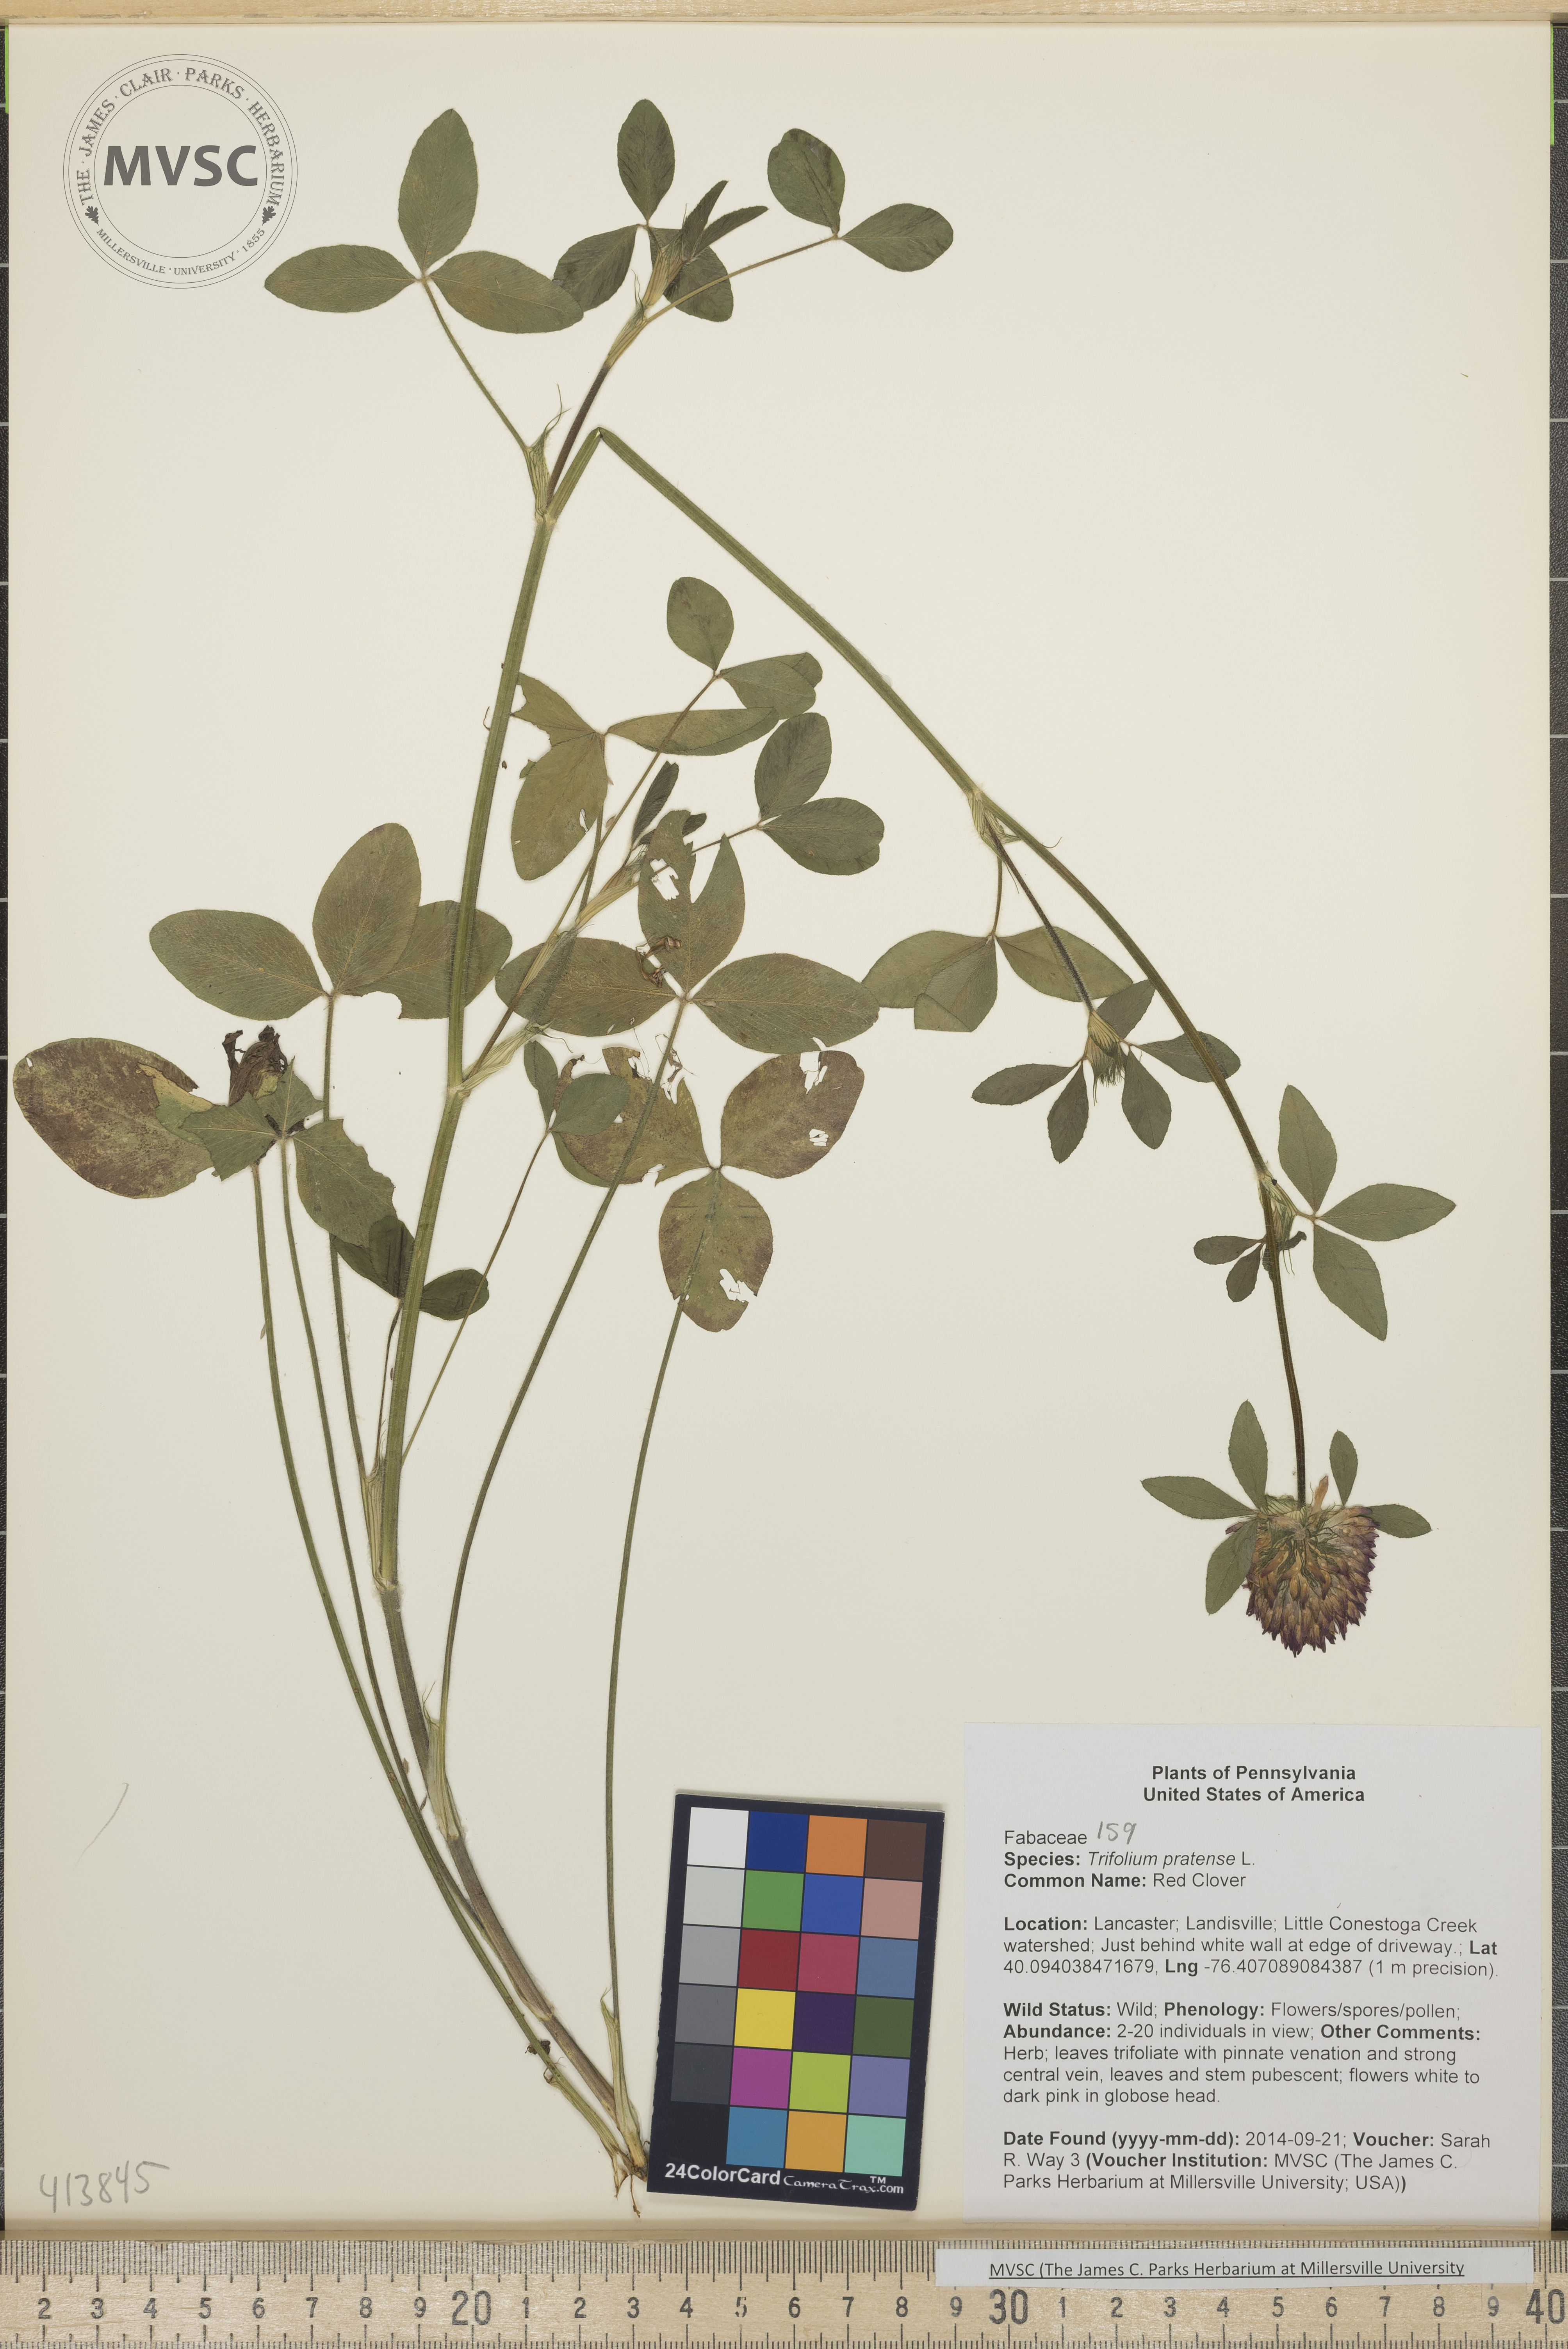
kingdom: Plantae
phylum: Tracheophyta
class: Magnoliopsida
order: Fabales
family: Fabaceae
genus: Trifolium
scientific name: Trifolium pratense
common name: Red Clover
